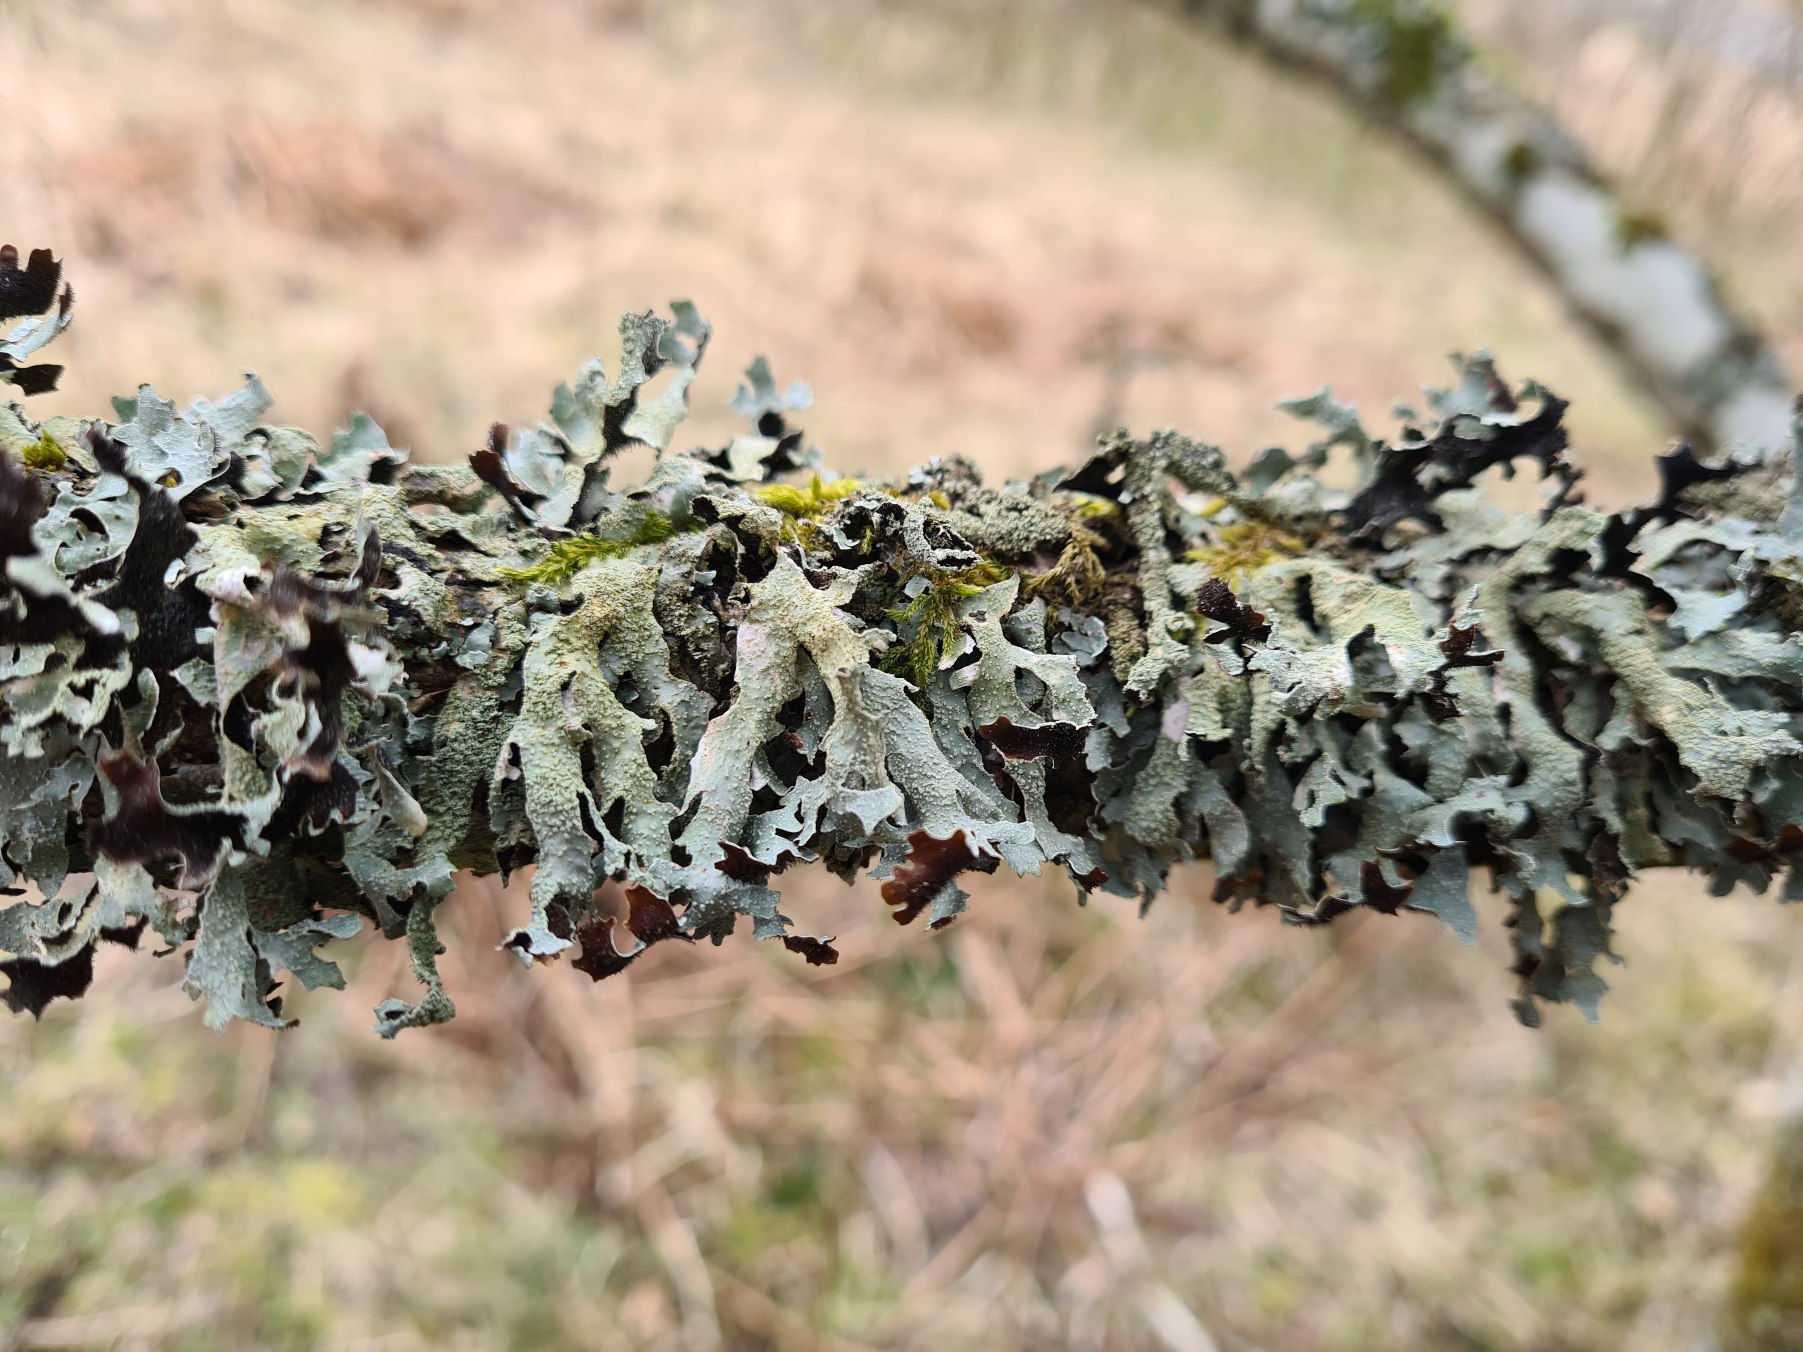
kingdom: Fungi
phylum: Ascomycota
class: Lecanoromycetes
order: Lecanorales
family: Parmeliaceae
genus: Parmelia
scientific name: Parmelia submontana
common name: Langlobet skållav
